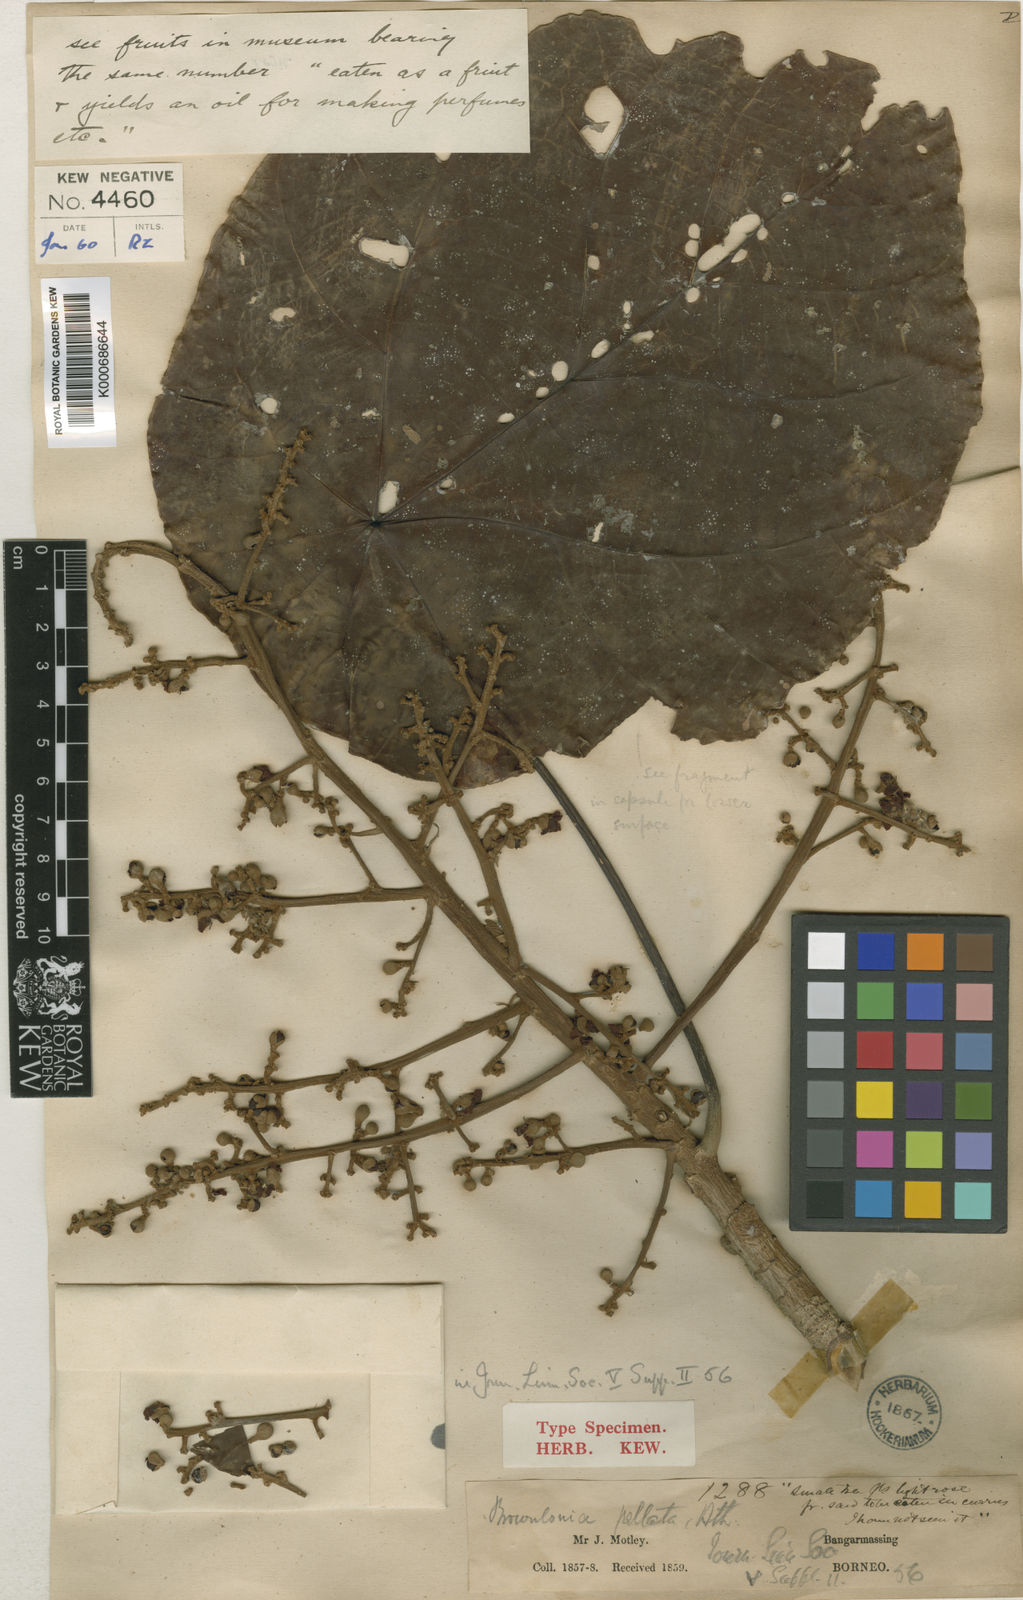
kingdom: Plantae
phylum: Tracheophyta
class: Magnoliopsida
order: Malvales
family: Malvaceae
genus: Brownlowia
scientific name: Brownlowia peltata
